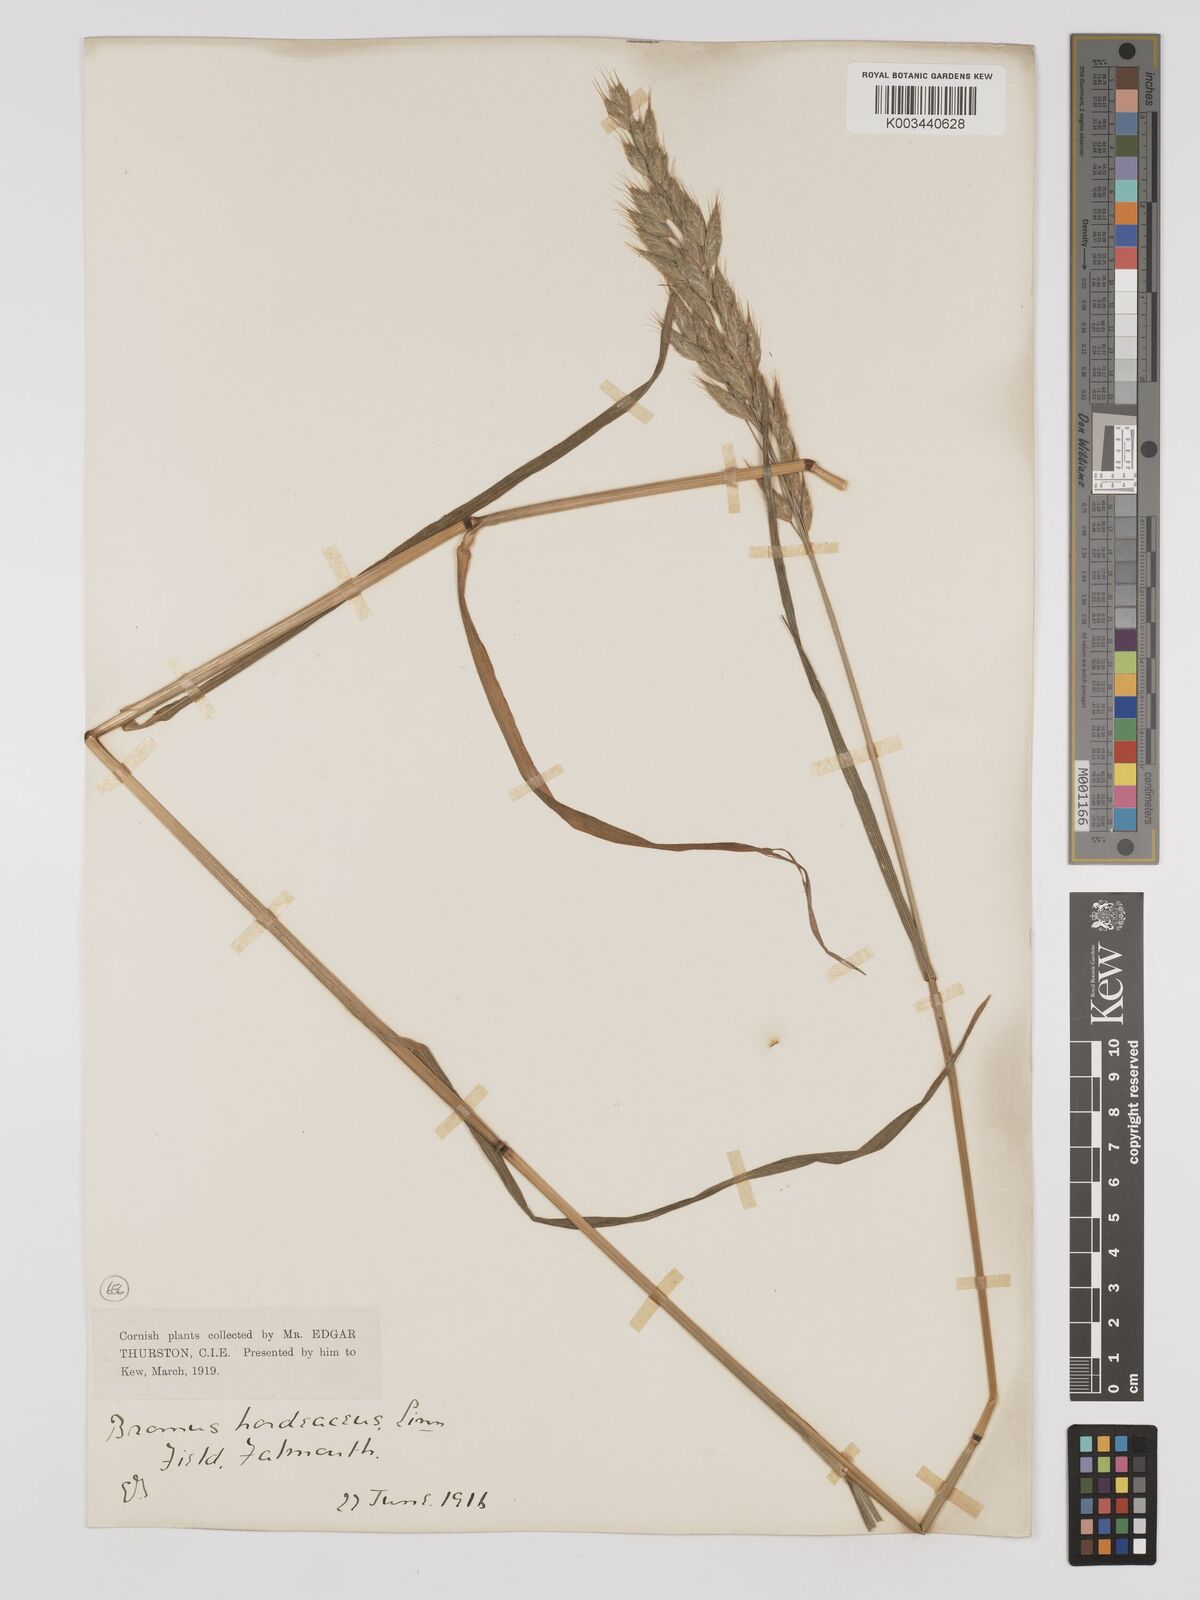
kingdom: Plantae
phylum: Tracheophyta
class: Liliopsida
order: Poales
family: Poaceae
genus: Bromus
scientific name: Bromus hordeaceus
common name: Soft brome
